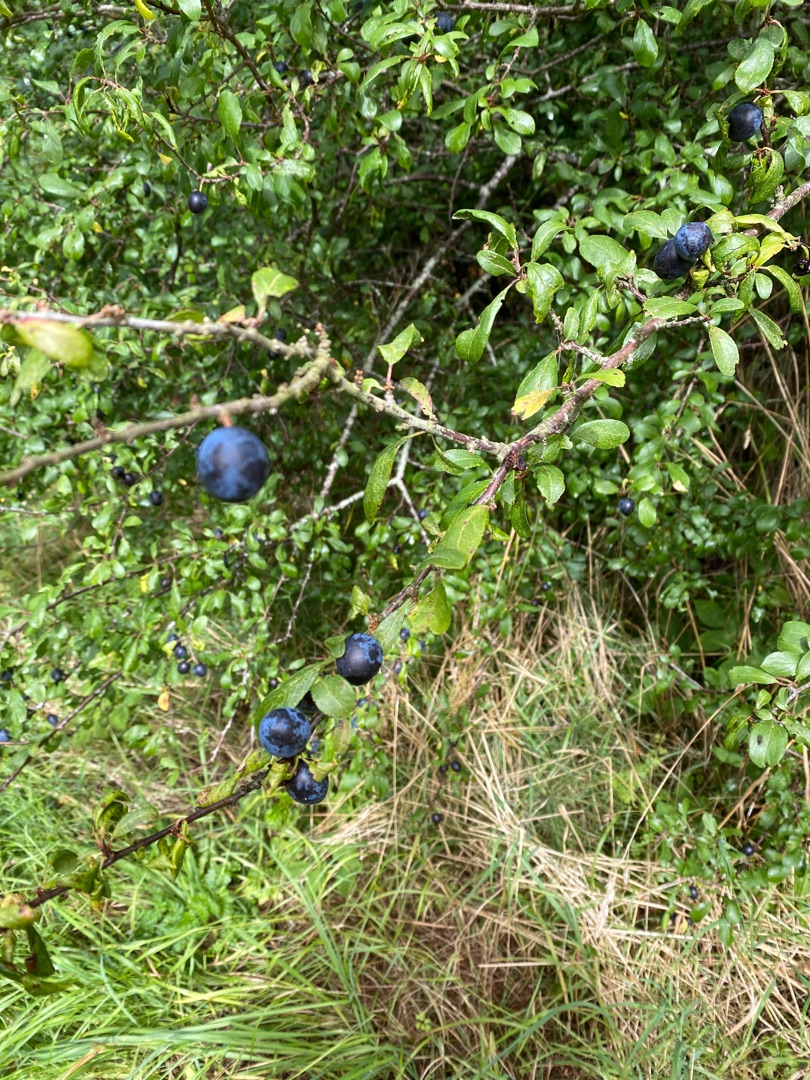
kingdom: Plantae
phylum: Tracheophyta
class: Magnoliopsida
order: Rosales
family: Rosaceae
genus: Prunus
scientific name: Prunus spinosa
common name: Slåen
